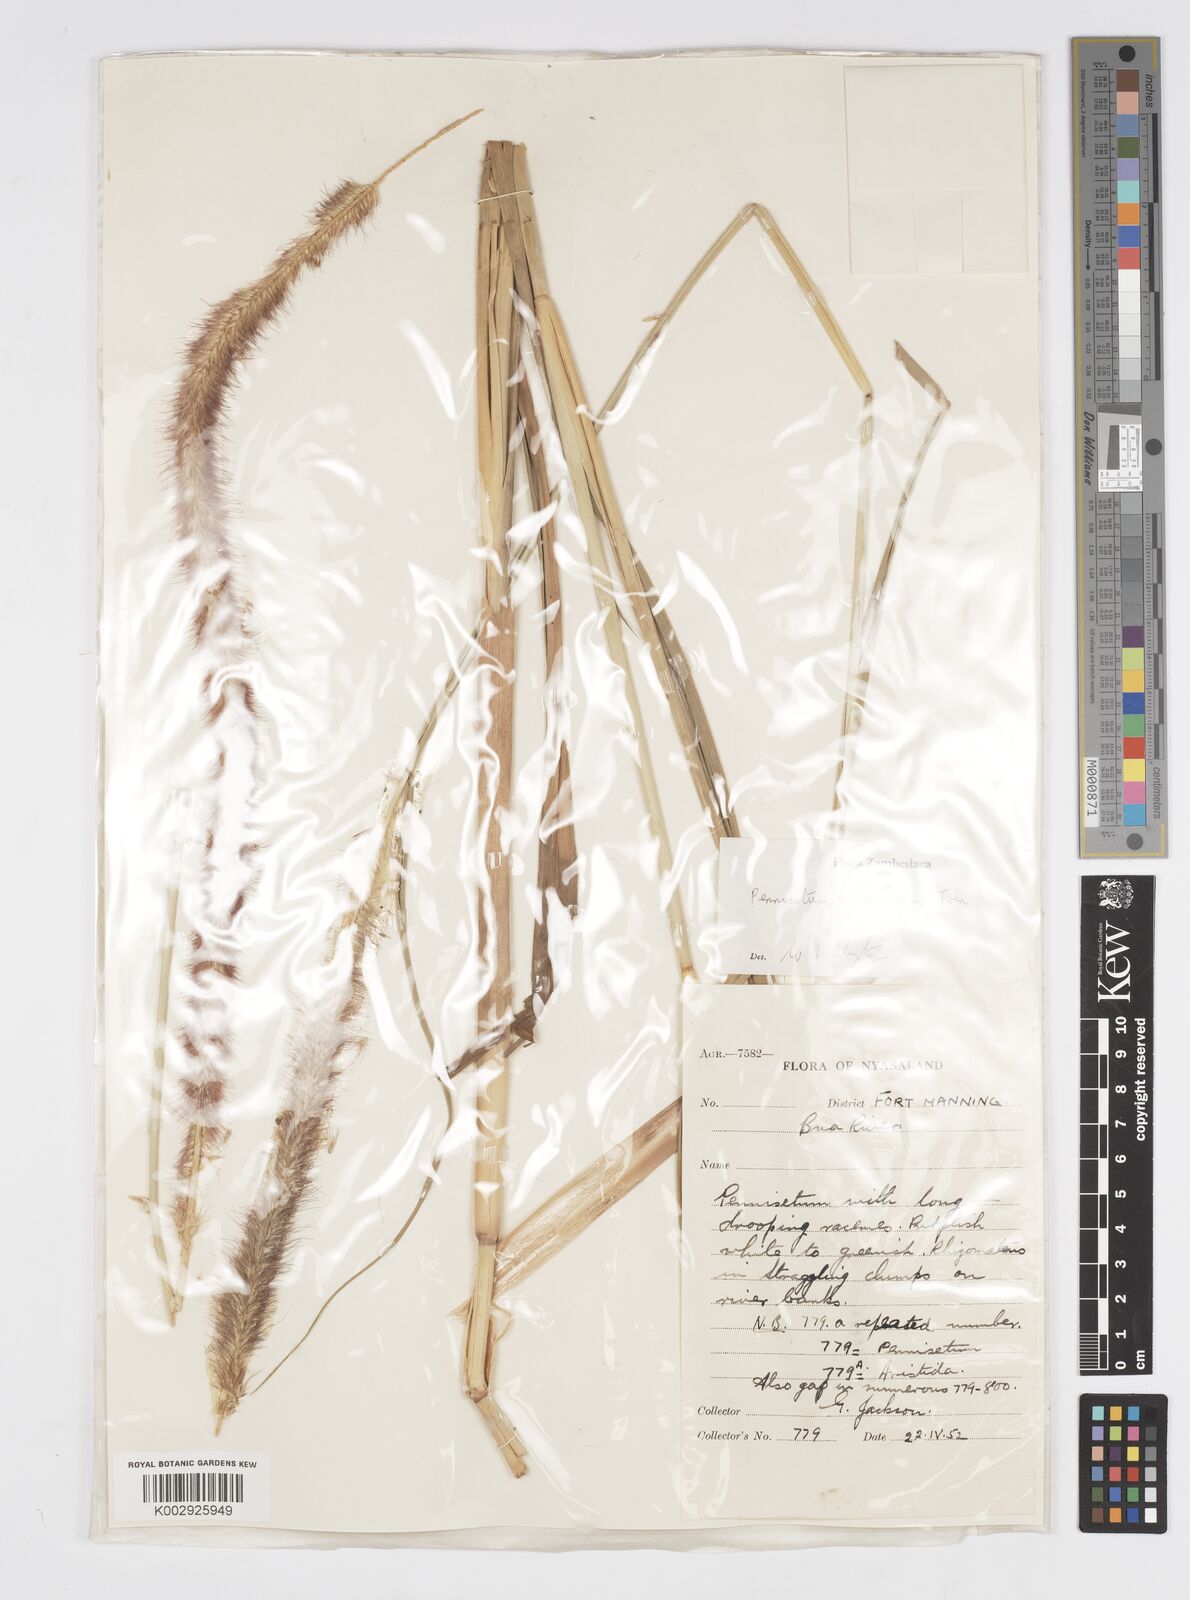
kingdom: Plantae
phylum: Tracheophyta
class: Liliopsida
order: Poales
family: Poaceae
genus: Cenchrus
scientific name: Cenchrus caudatus
